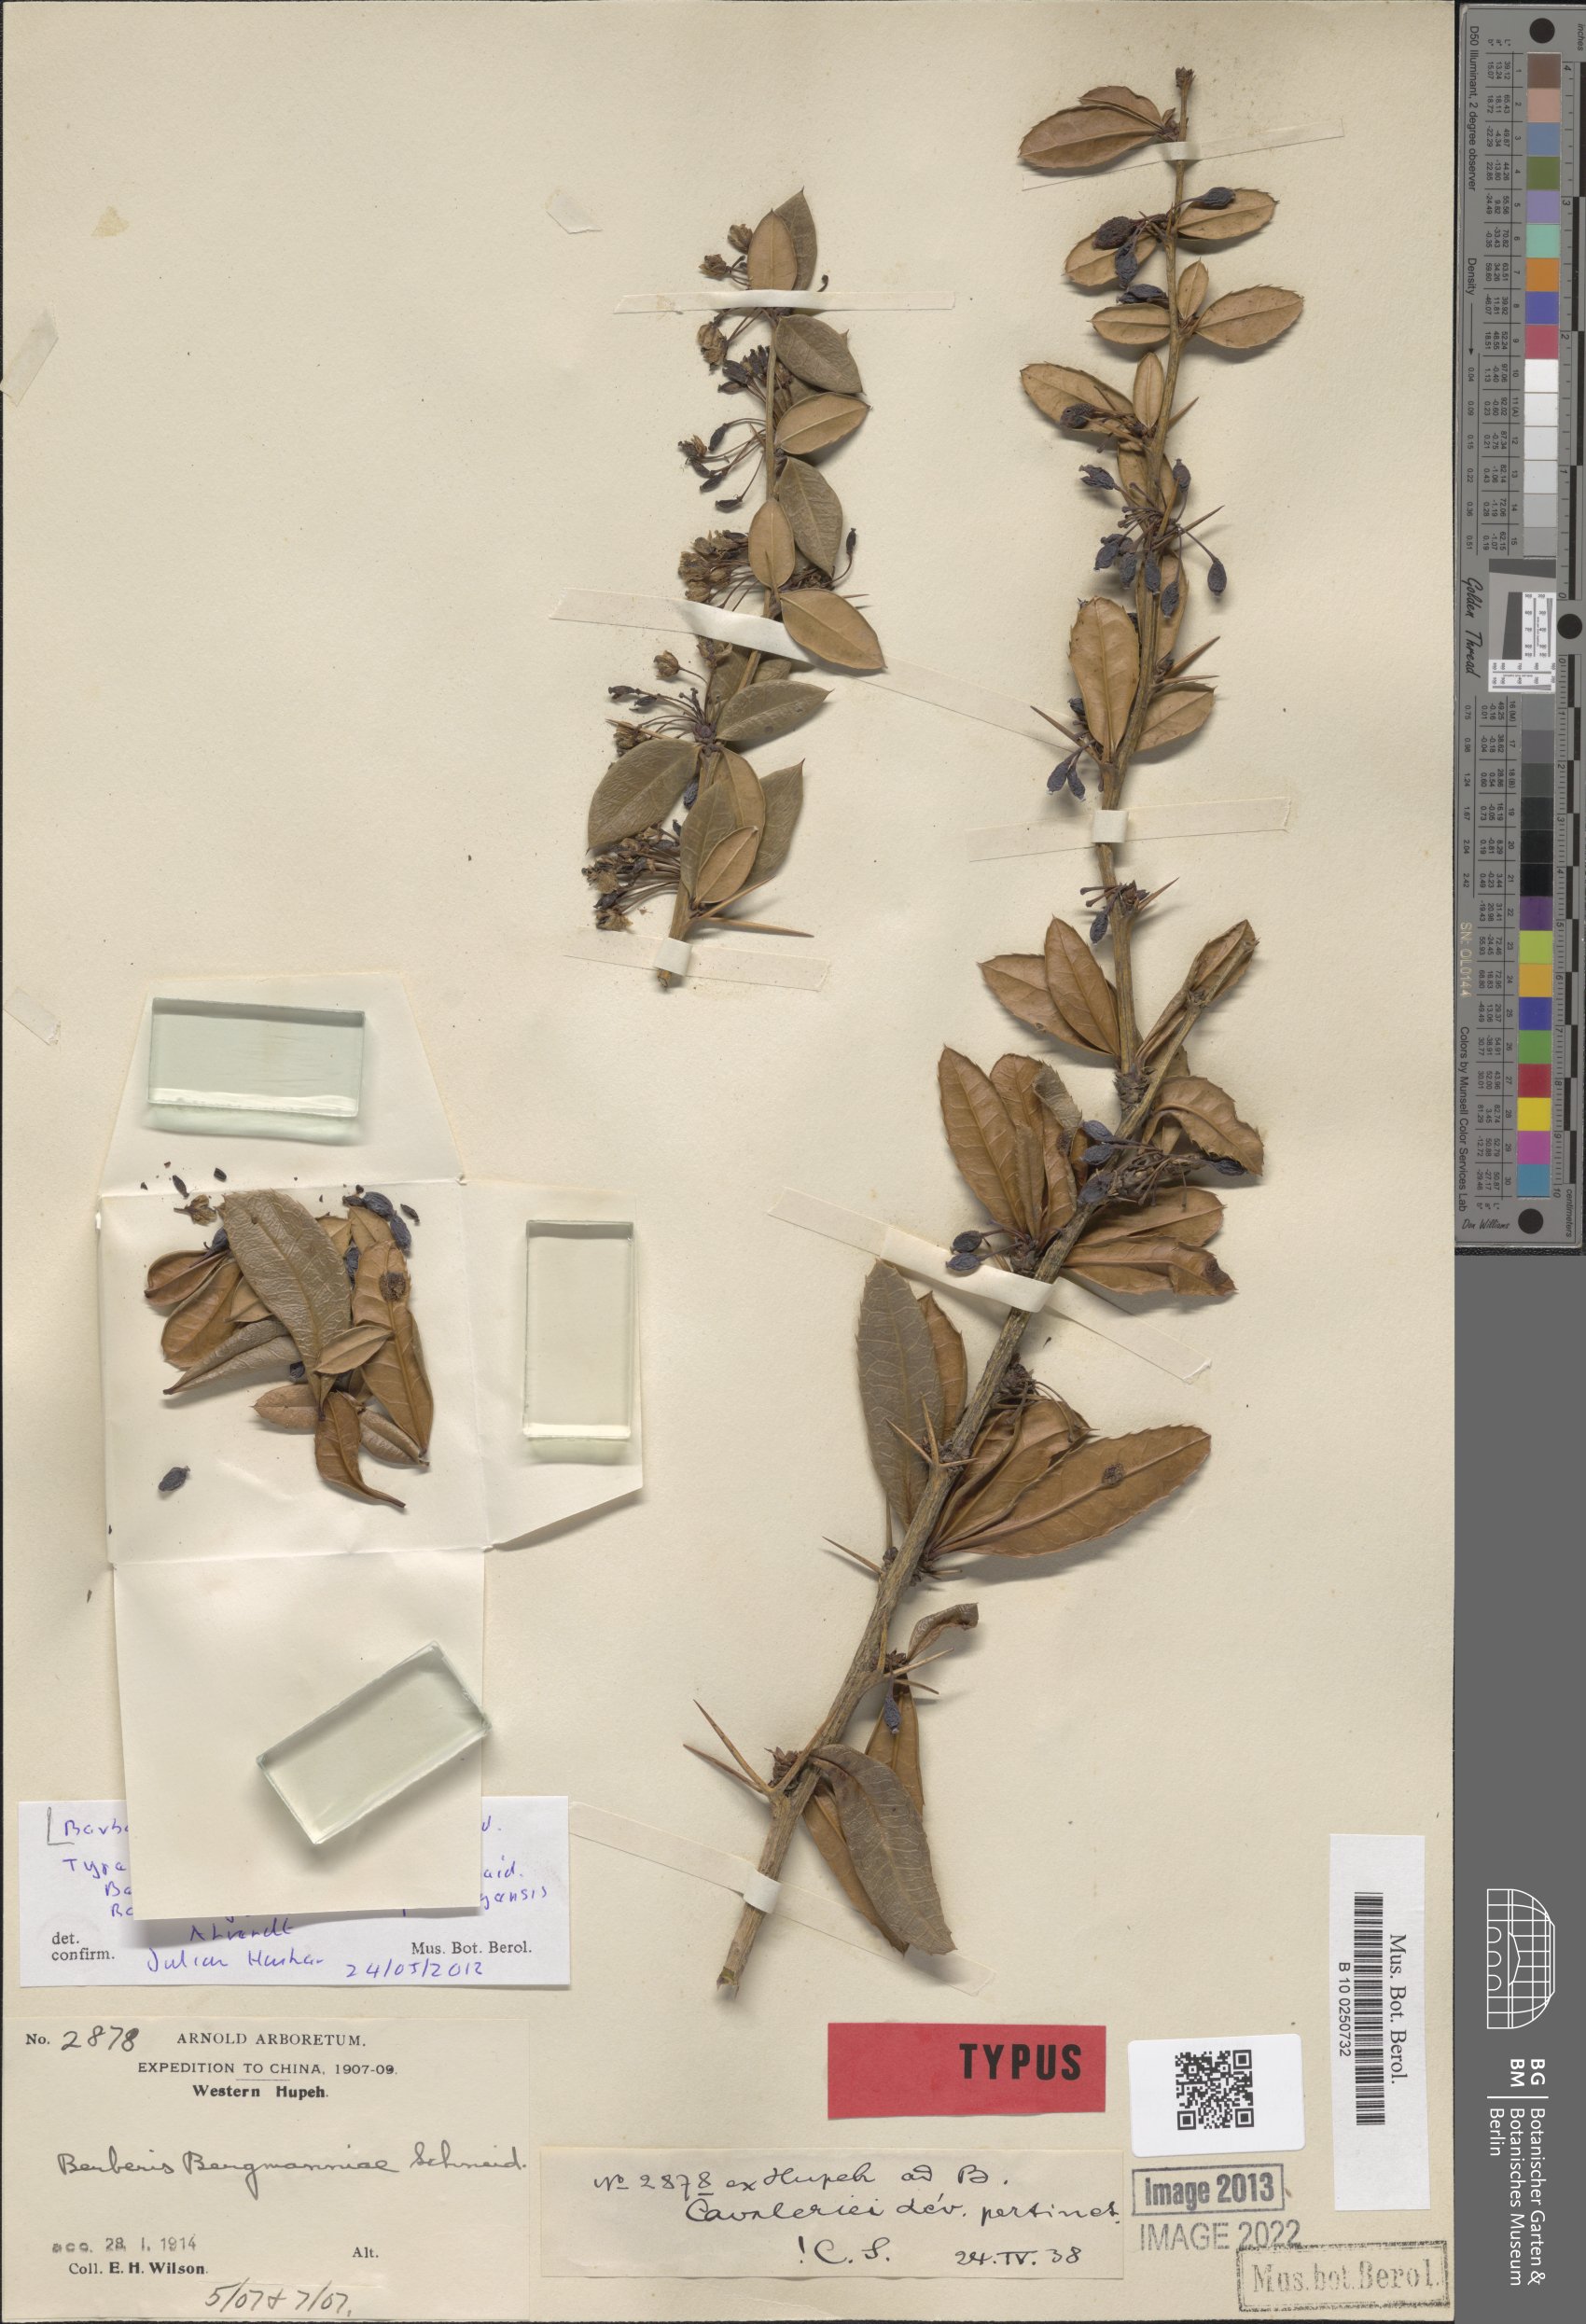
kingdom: Plantae
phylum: Tracheophyta
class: Magnoliopsida
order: Ranunculales
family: Berberidaceae
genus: Berberis
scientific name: Berberis julianae
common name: Wintergreen barberry
